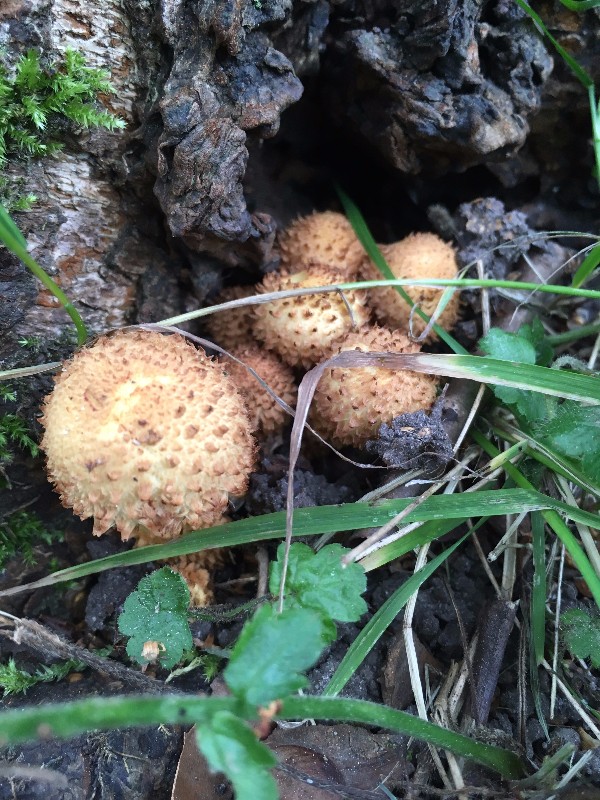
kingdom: Fungi
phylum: Basidiomycota
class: Agaricomycetes
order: Agaricales
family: Strophariaceae
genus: Pholiota
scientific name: Pholiota squarrosa
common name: krumskællet skælhat
